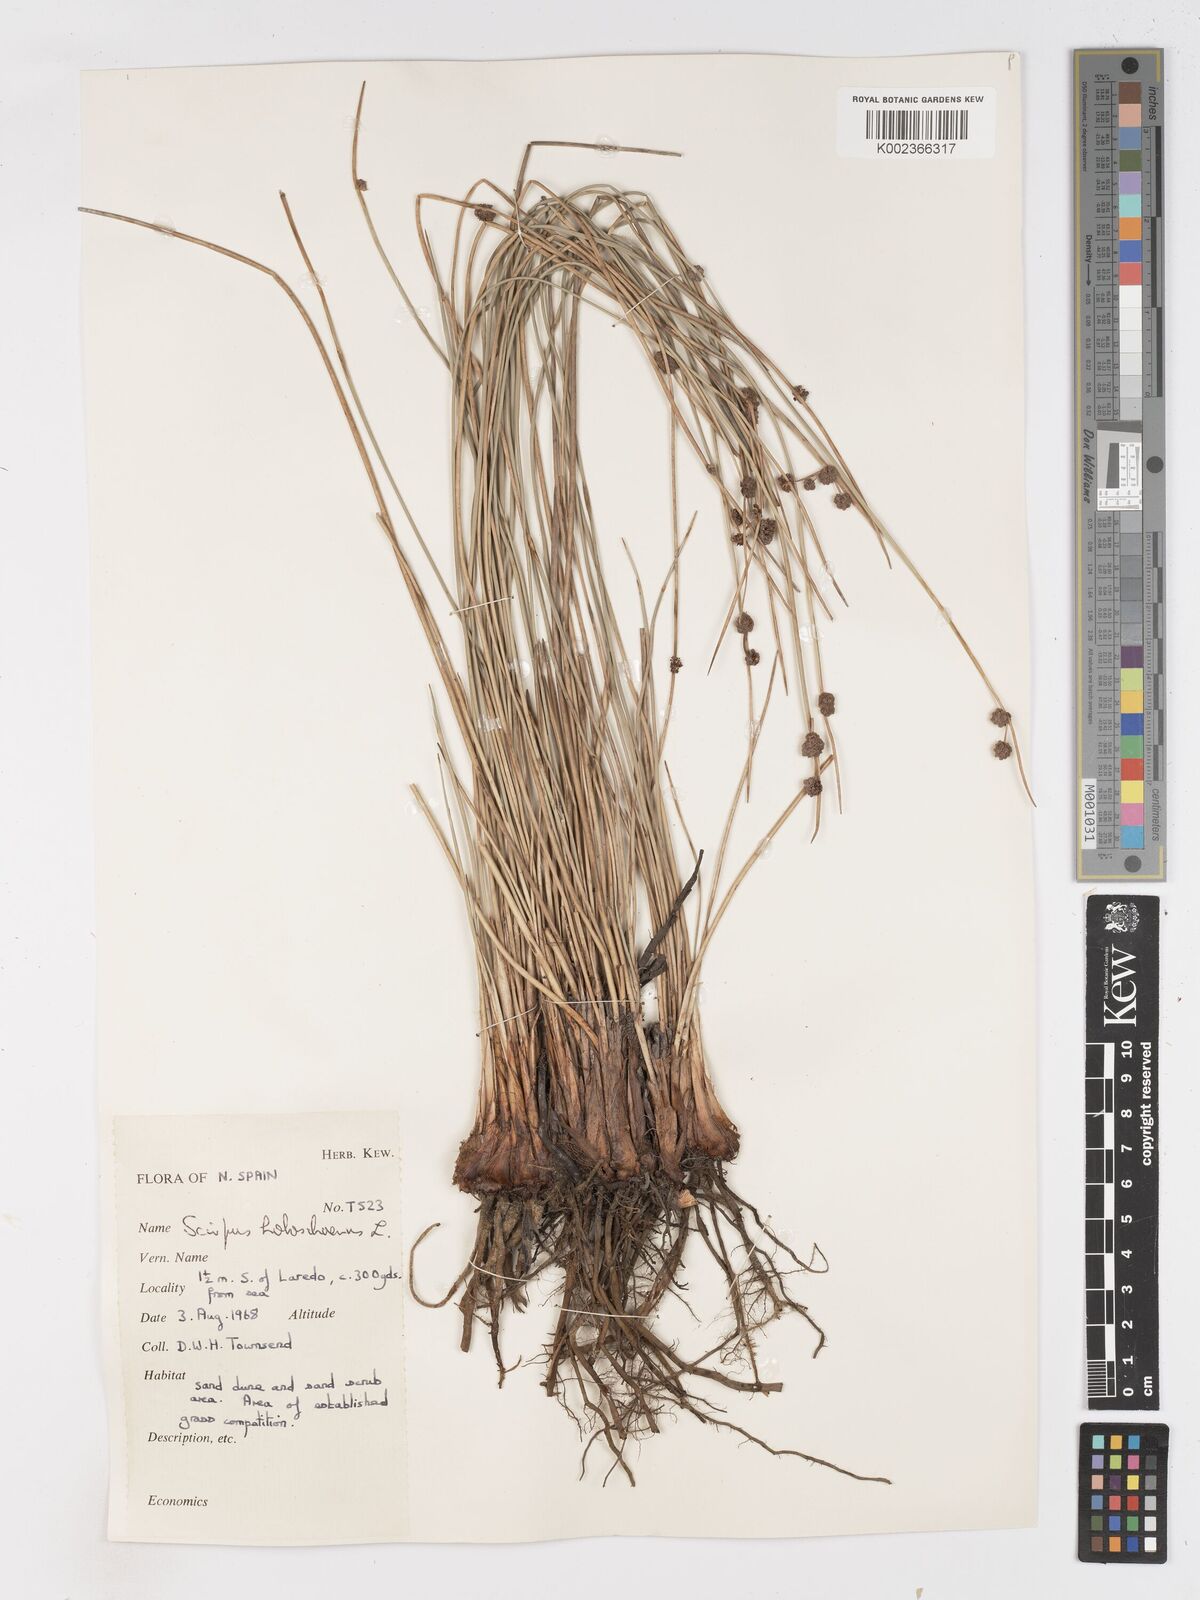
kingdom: Plantae
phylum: Tracheophyta
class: Liliopsida
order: Poales
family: Cyperaceae
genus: Scirpoides
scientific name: Scirpoides holoschoenus
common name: Round-headed club-rush
